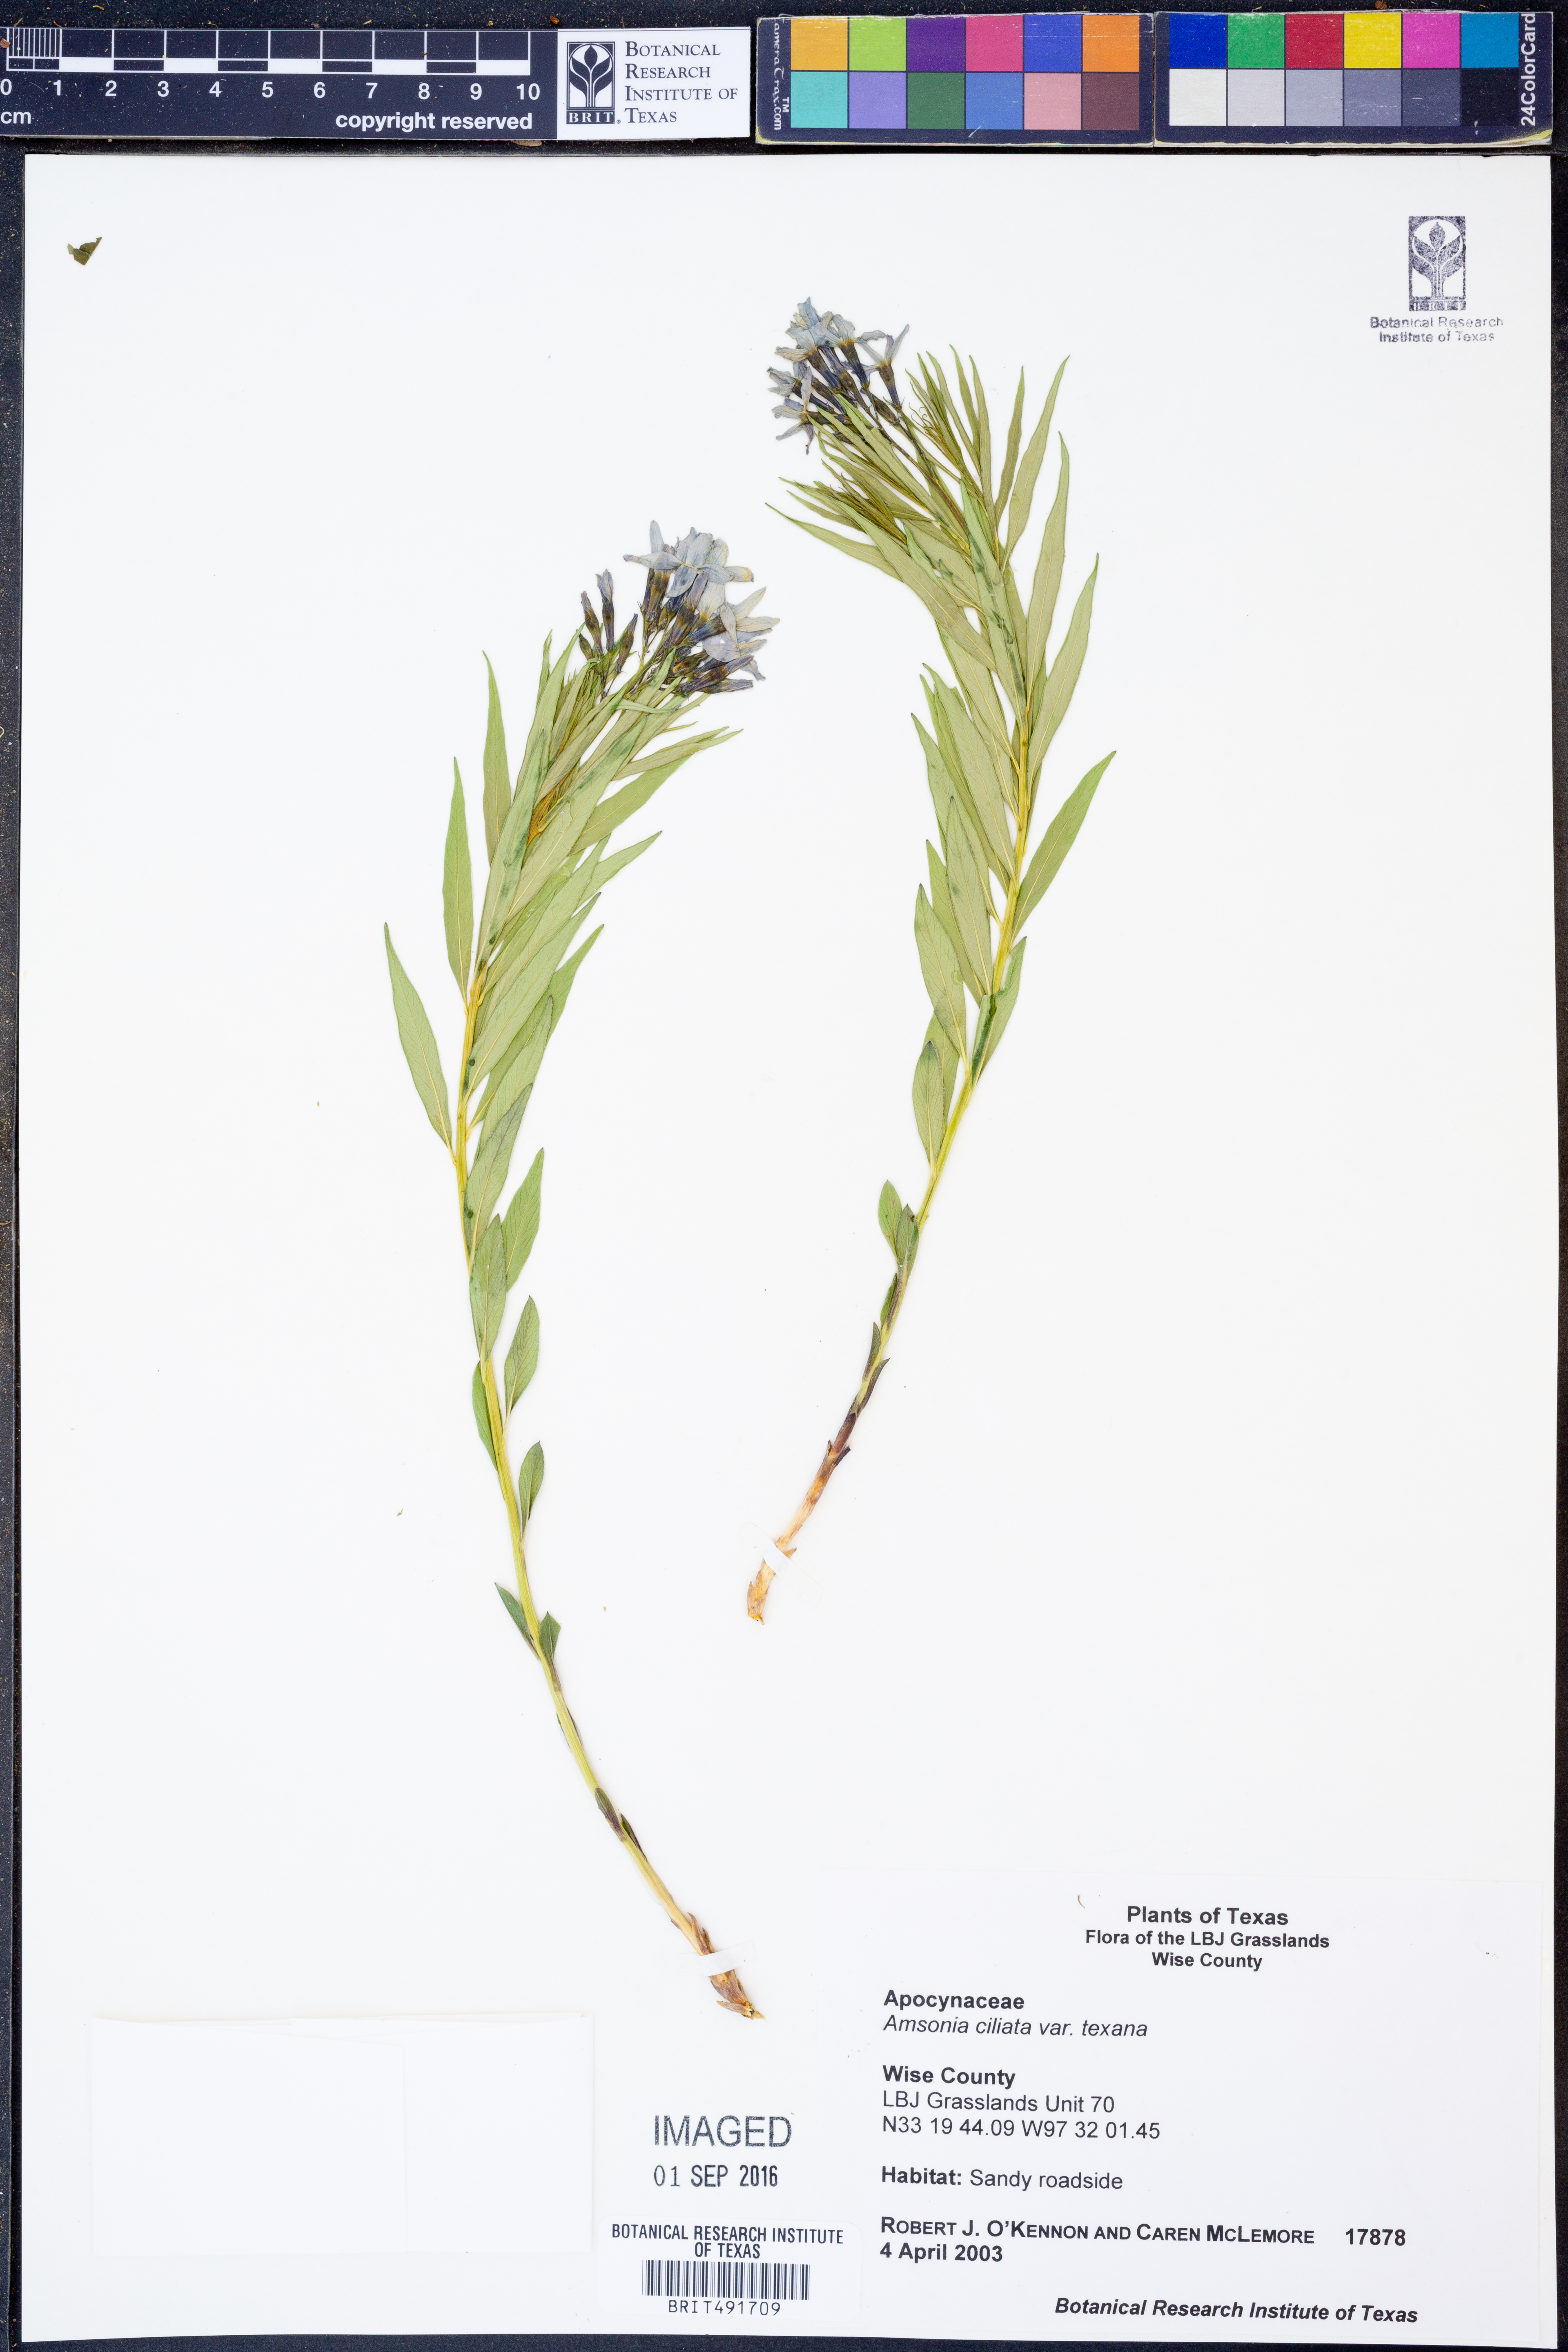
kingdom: Plantae
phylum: Tracheophyta
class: Magnoliopsida
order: Gentianales
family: Apocynaceae
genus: Amsonia
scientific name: Amsonia ciliata
